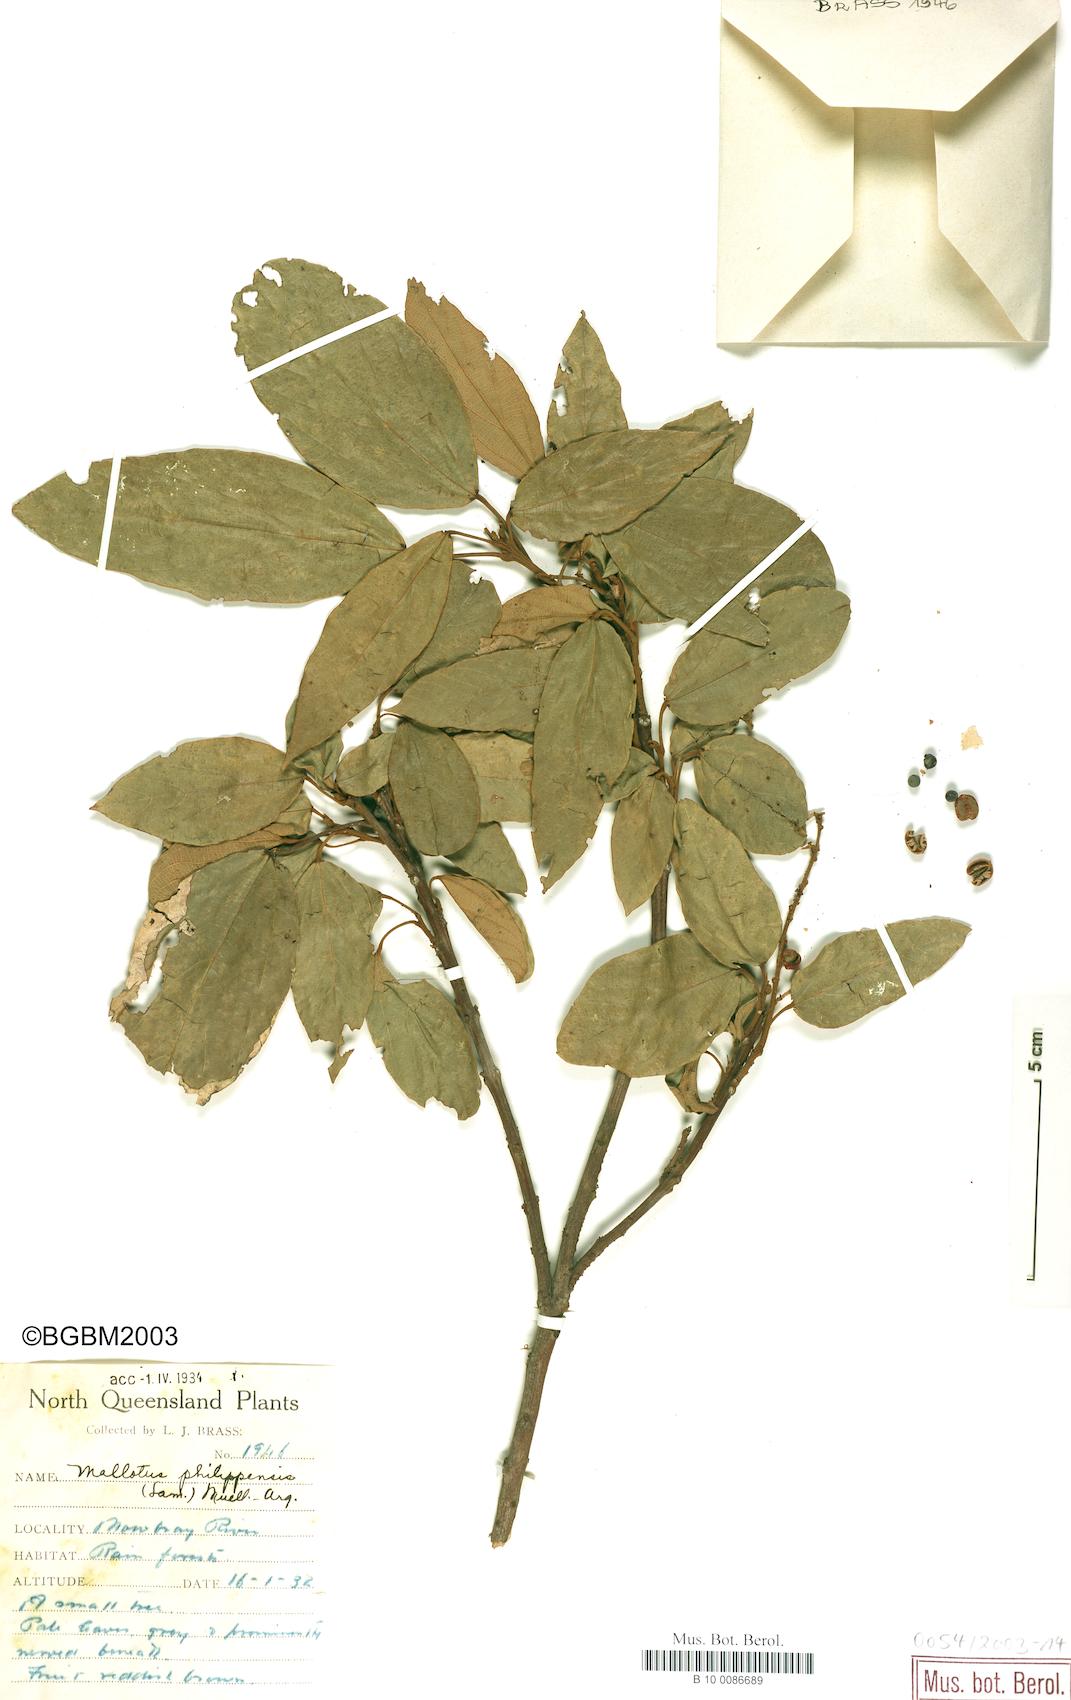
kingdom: Plantae
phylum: Tracheophyta
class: Magnoliopsida
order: Malpighiales
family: Euphorbiaceae
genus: Mallotus
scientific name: Mallotus philippensis
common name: Kamala tree
